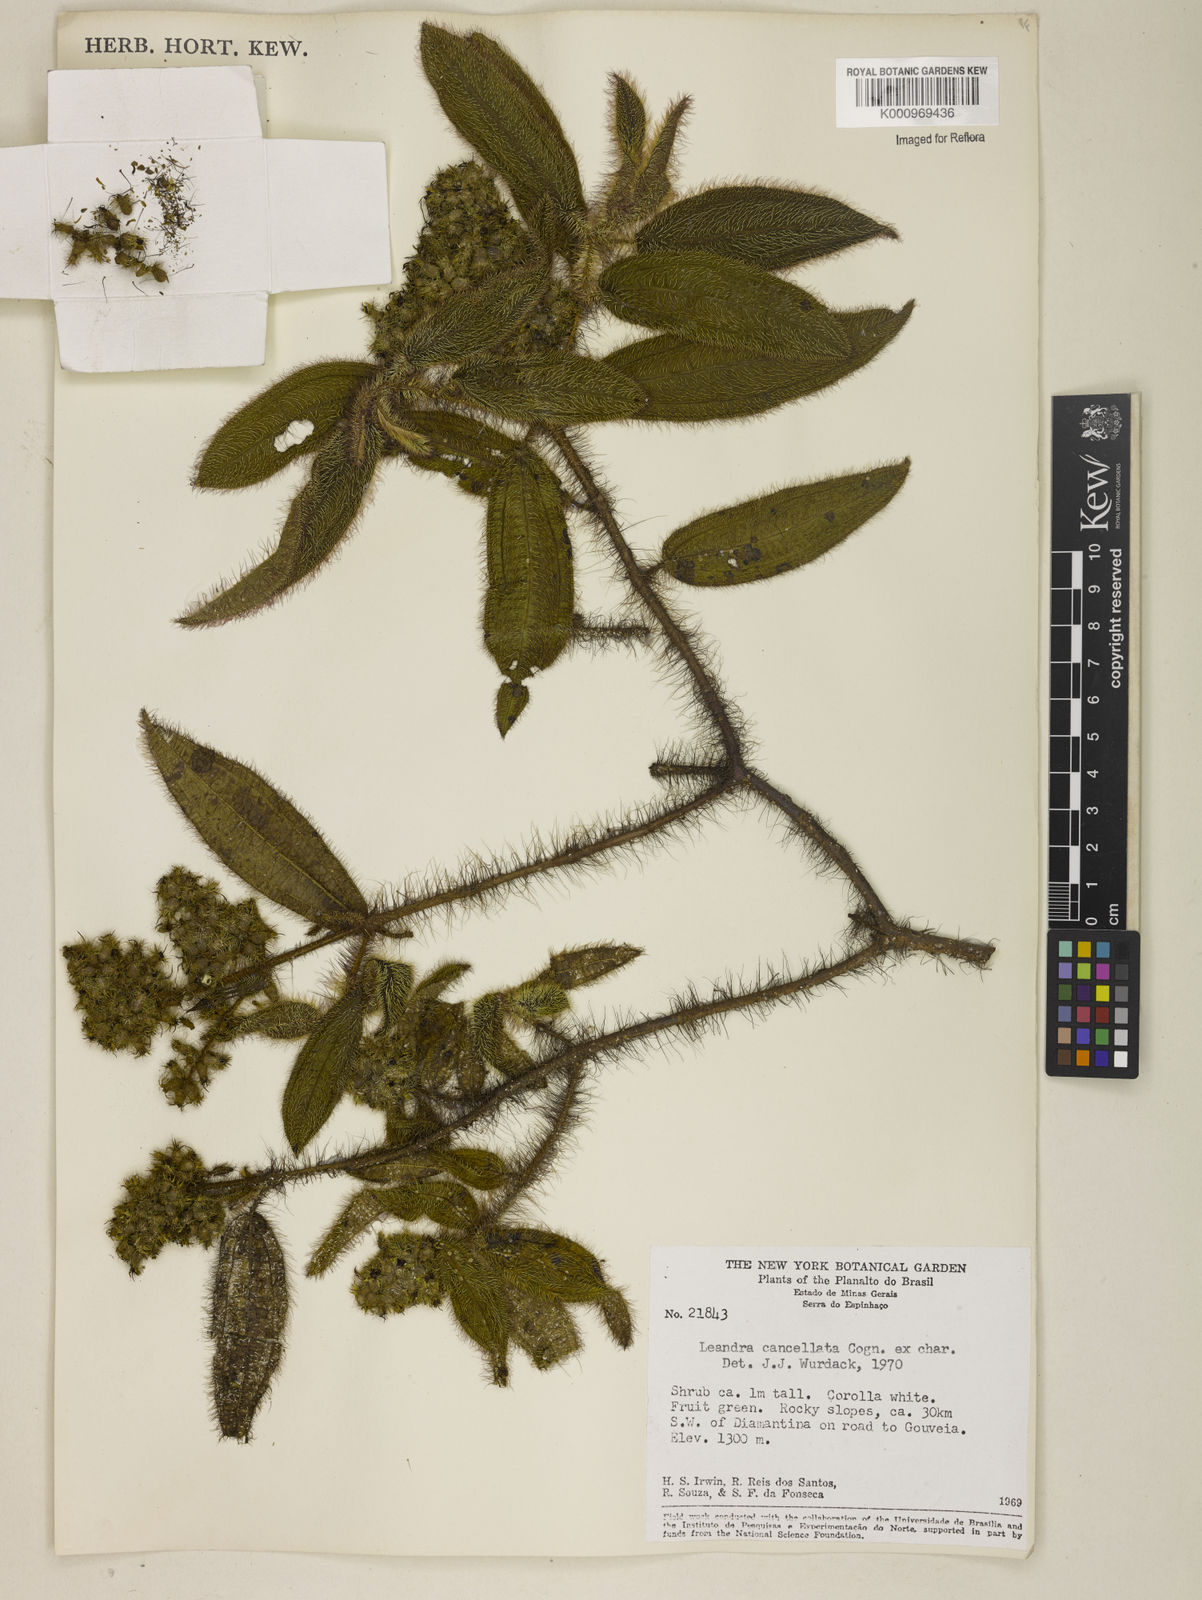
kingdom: Plantae
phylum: Tracheophyta
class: Magnoliopsida
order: Myrtales
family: Melastomataceae
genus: Miconia
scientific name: Miconia cancellata
